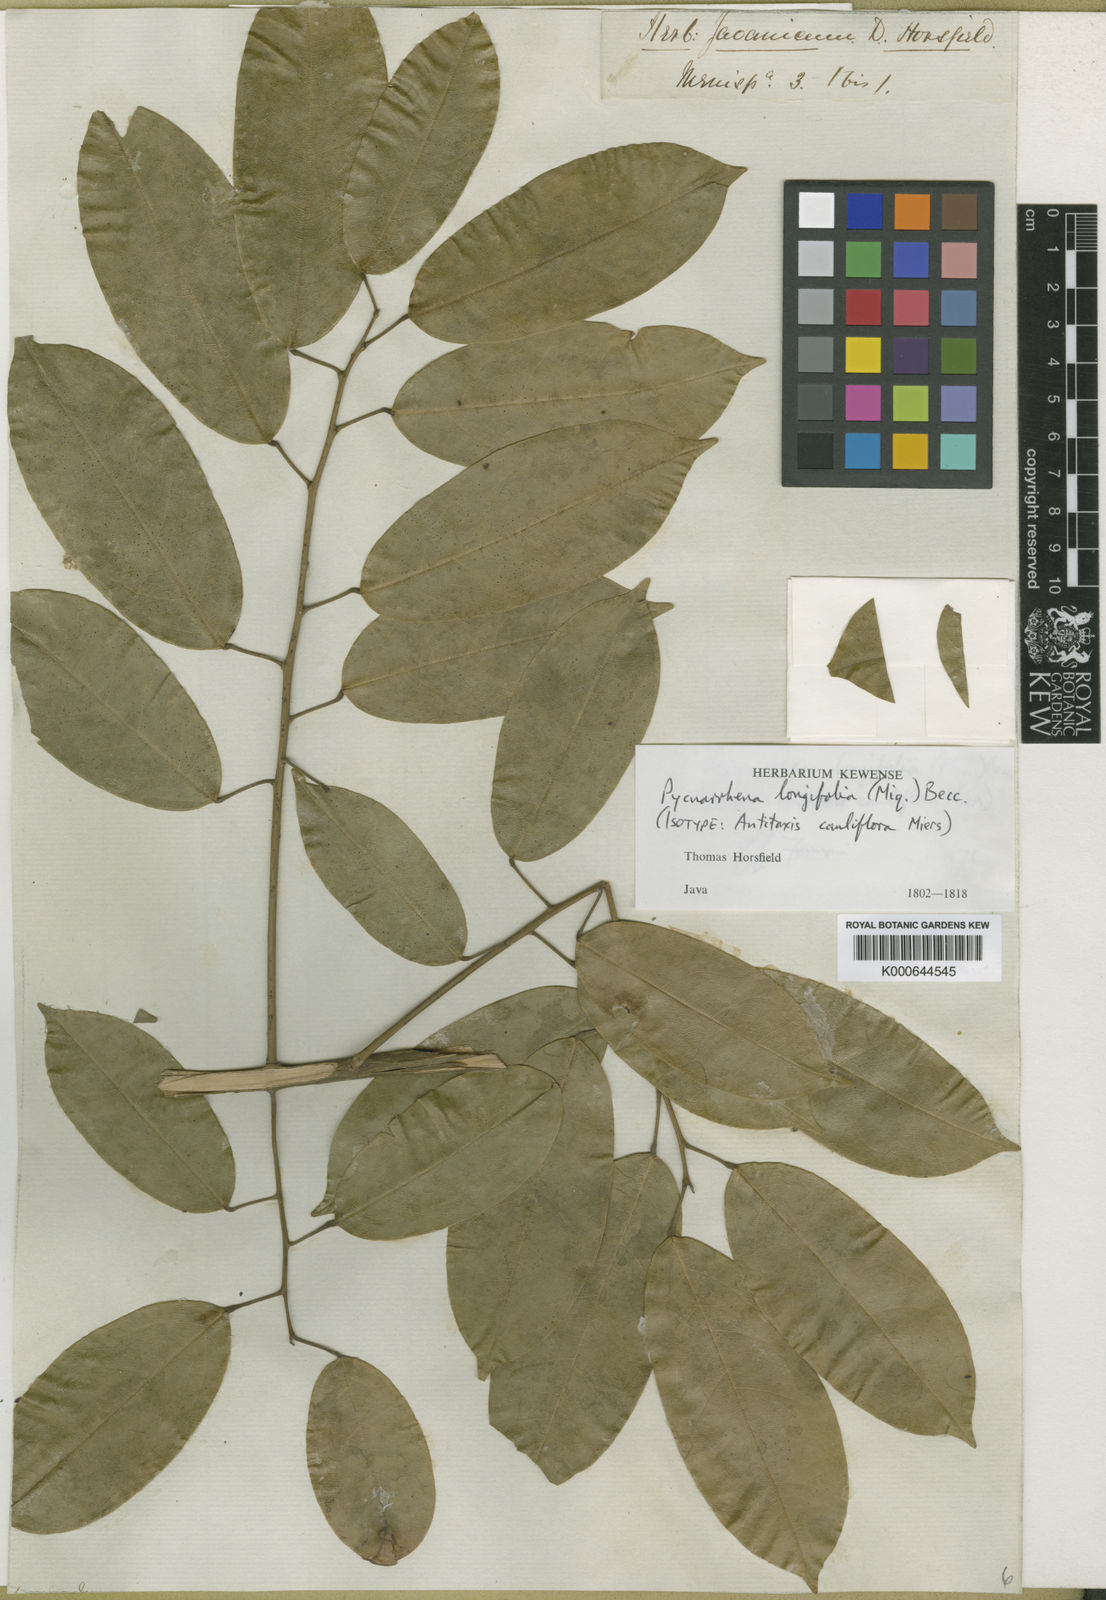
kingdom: Plantae
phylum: Tracheophyta
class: Magnoliopsida
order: Ranunculales
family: Menispermaceae
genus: Pycnarrhena
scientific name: Pycnarrhena longifolia
